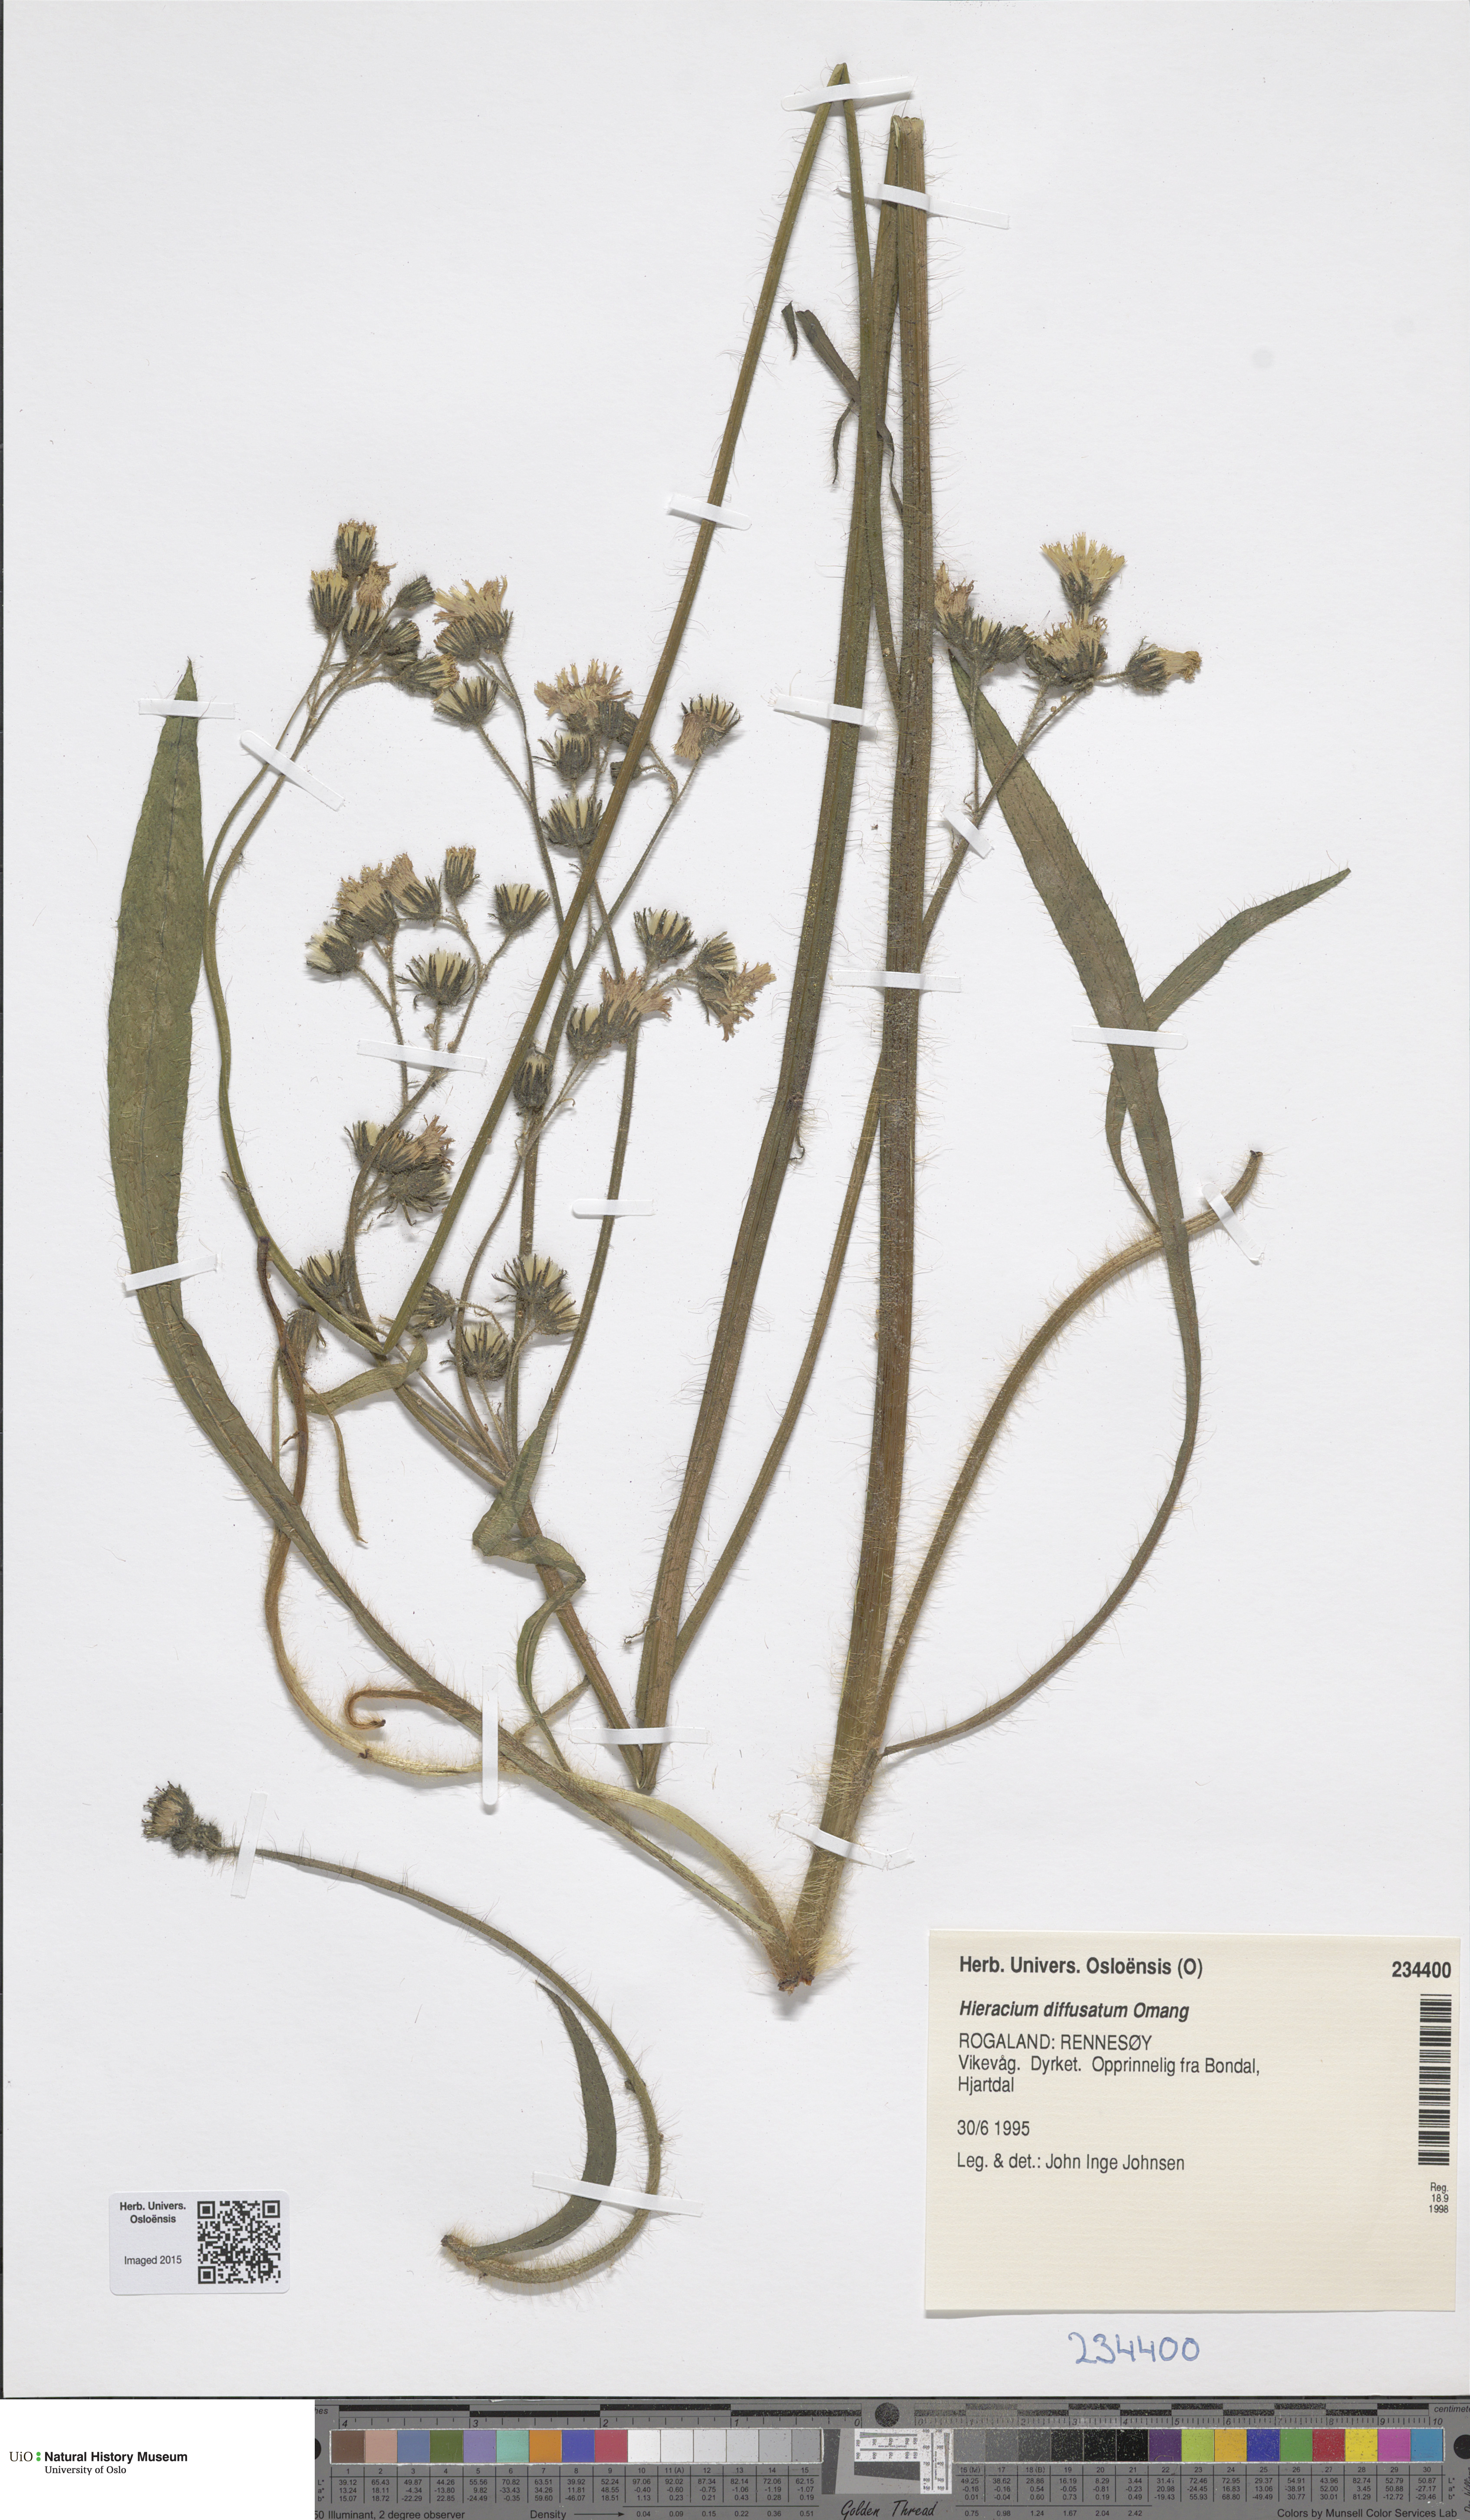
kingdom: Plantae
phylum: Tracheophyta
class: Magnoliopsida
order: Asterales
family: Asteraceae
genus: Pilosella
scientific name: Pilosella dubia
